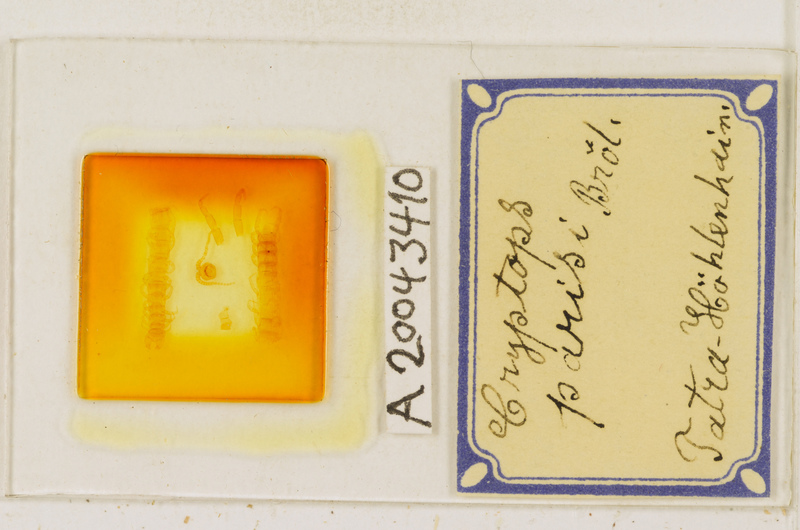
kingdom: Animalia
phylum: Arthropoda
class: Chilopoda
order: Scolopendromorpha
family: Cryptopidae
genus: Cryptops
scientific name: Cryptops parisi
